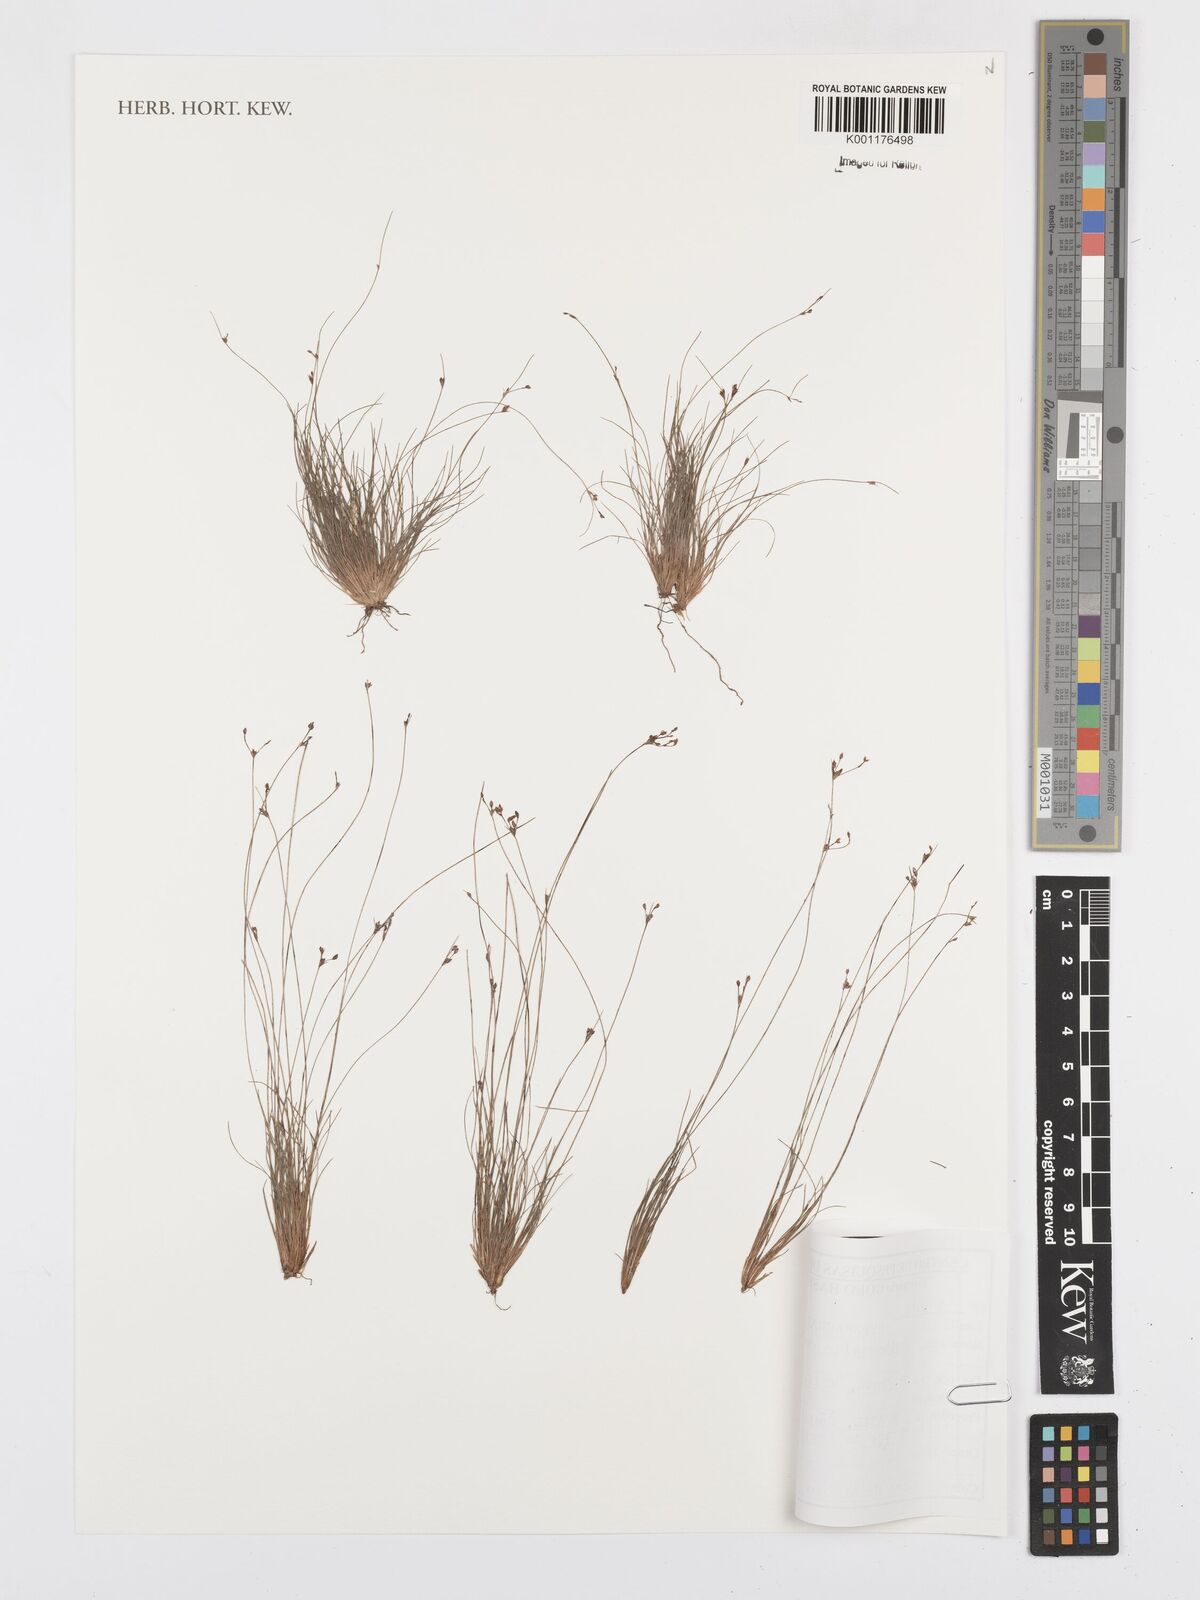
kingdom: Plantae
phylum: Tracheophyta
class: Liliopsida
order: Poales
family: Cyperaceae
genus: Bulbostylis
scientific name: Bulbostylis capillaris
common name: Densetuft hairsedge
